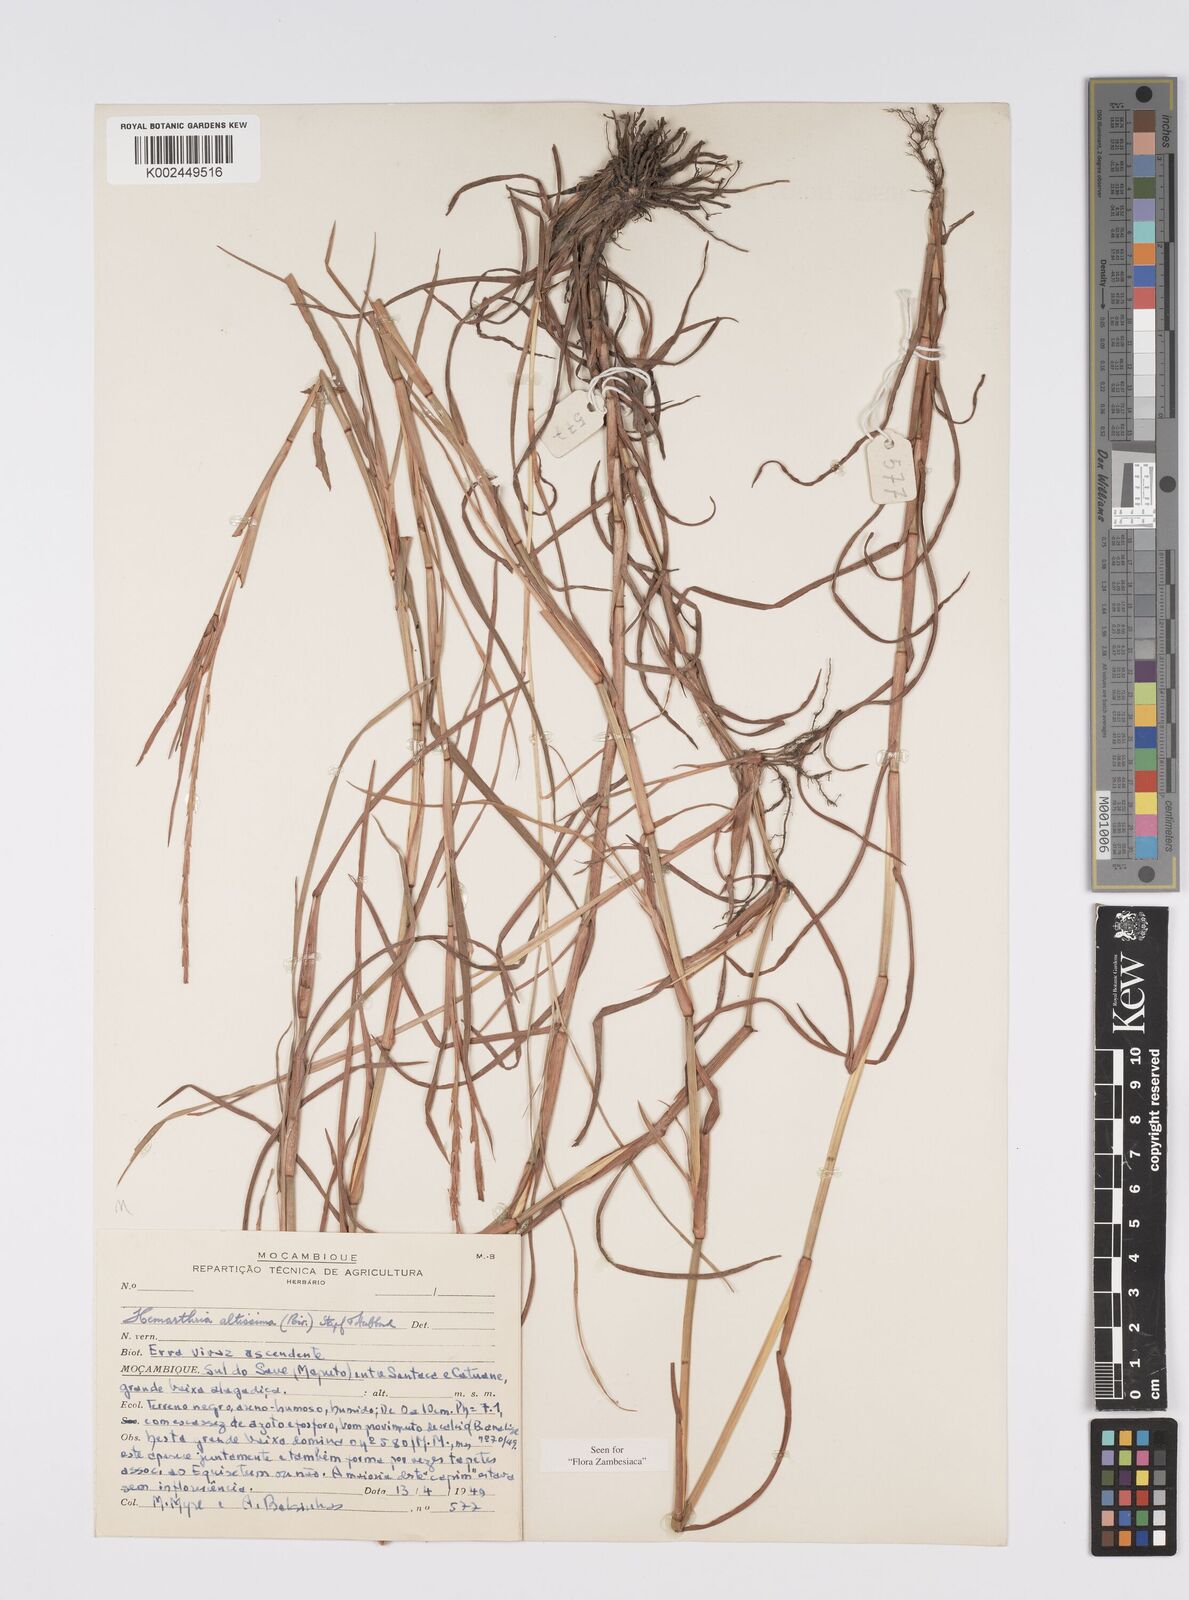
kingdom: Plantae
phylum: Tracheophyta
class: Liliopsida
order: Poales
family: Poaceae
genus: Hemarthria
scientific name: Hemarthria altissima
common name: African jointgrass
